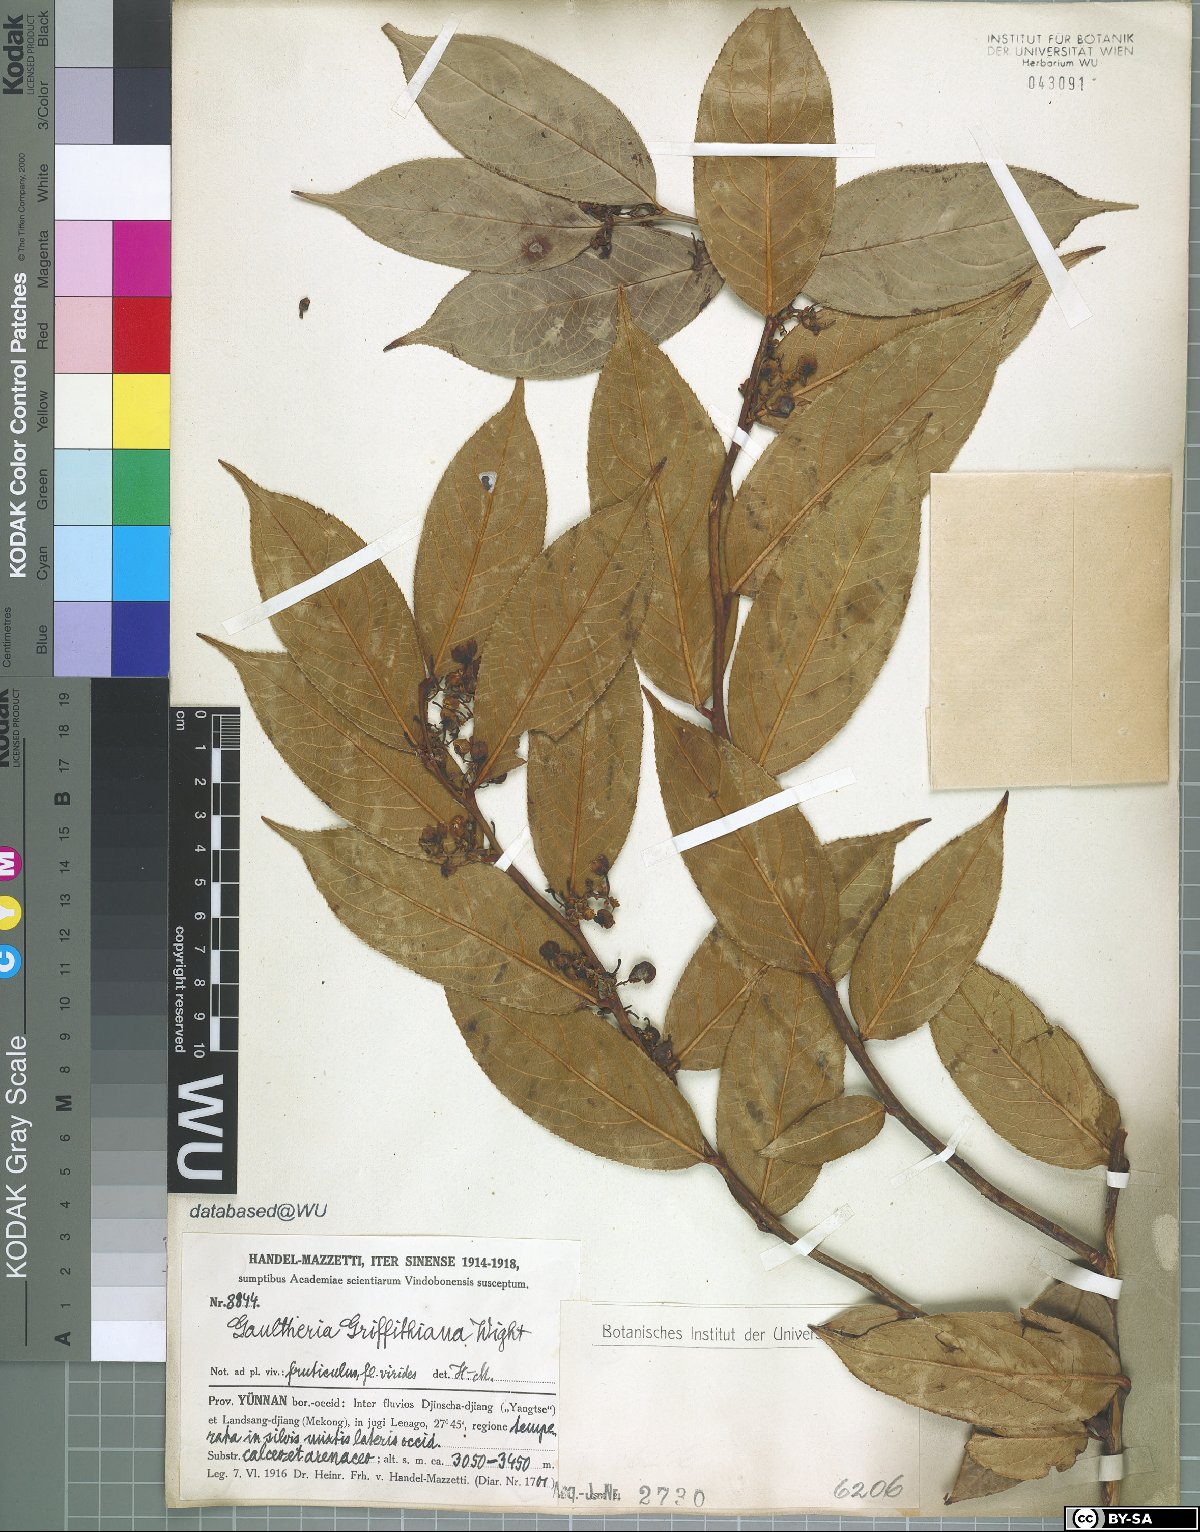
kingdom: Plantae
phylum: Tracheophyta
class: Magnoliopsida
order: Ericales
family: Ericaceae
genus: Gaultheria
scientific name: Gaultheria griffithiana
